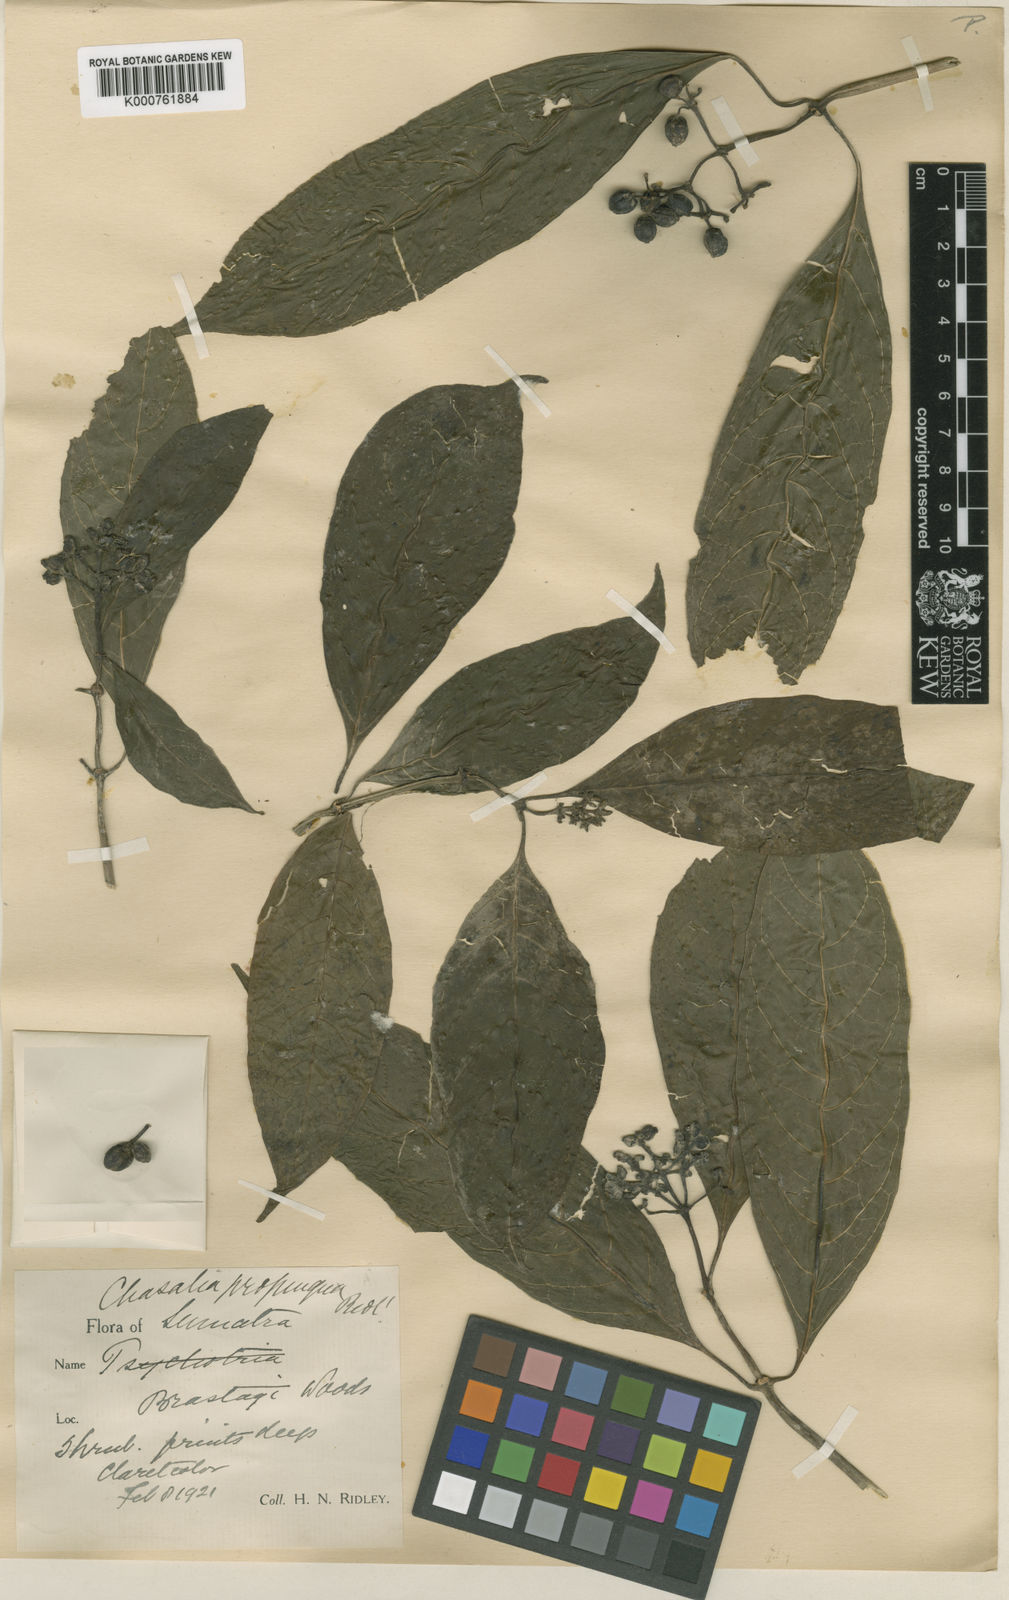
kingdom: Plantae
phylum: Tracheophyta
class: Magnoliopsida
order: Gentianales
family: Rubiaceae
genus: Chassalia
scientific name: Chassalia propinqua
